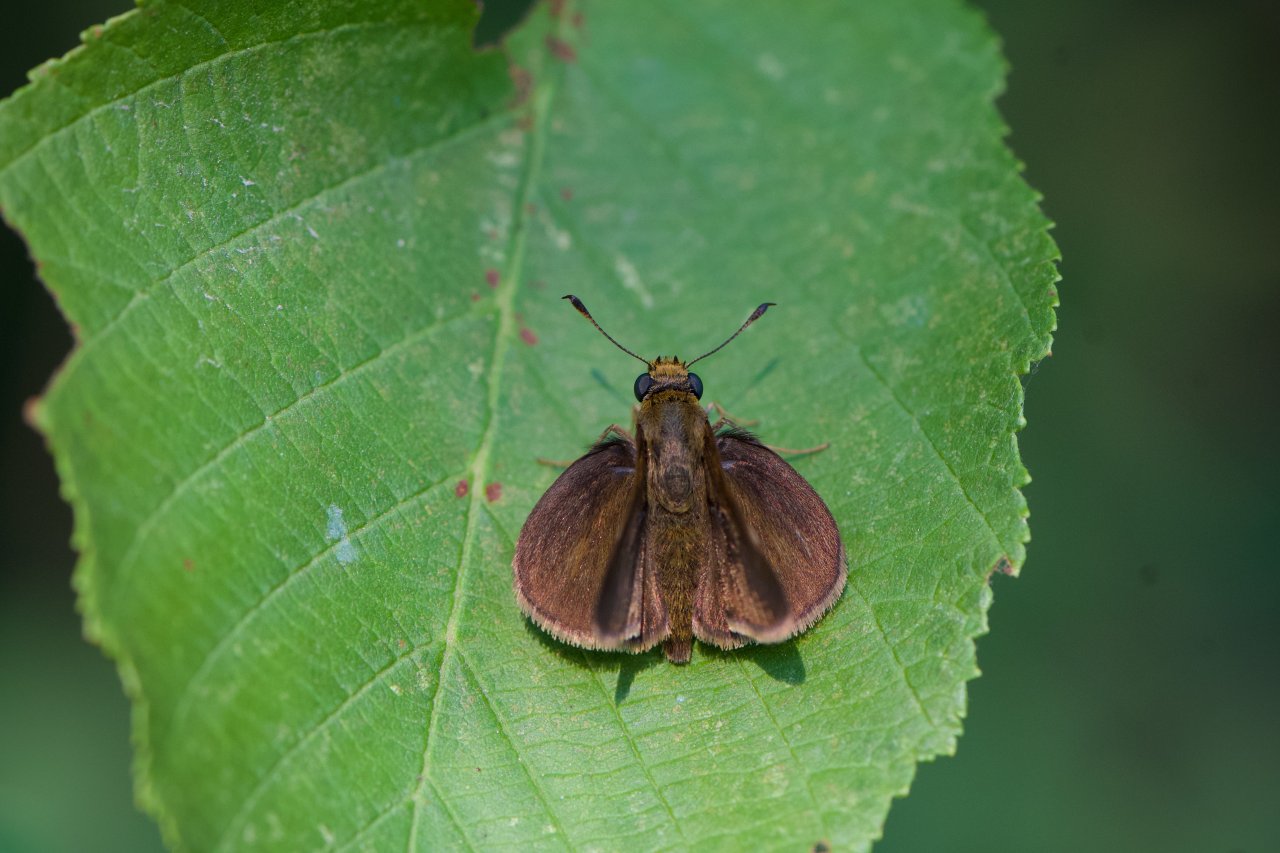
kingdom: Animalia
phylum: Arthropoda
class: Insecta
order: Lepidoptera
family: Hesperiidae
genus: Euphyes
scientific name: Euphyes vestris
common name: Dun Skipper
